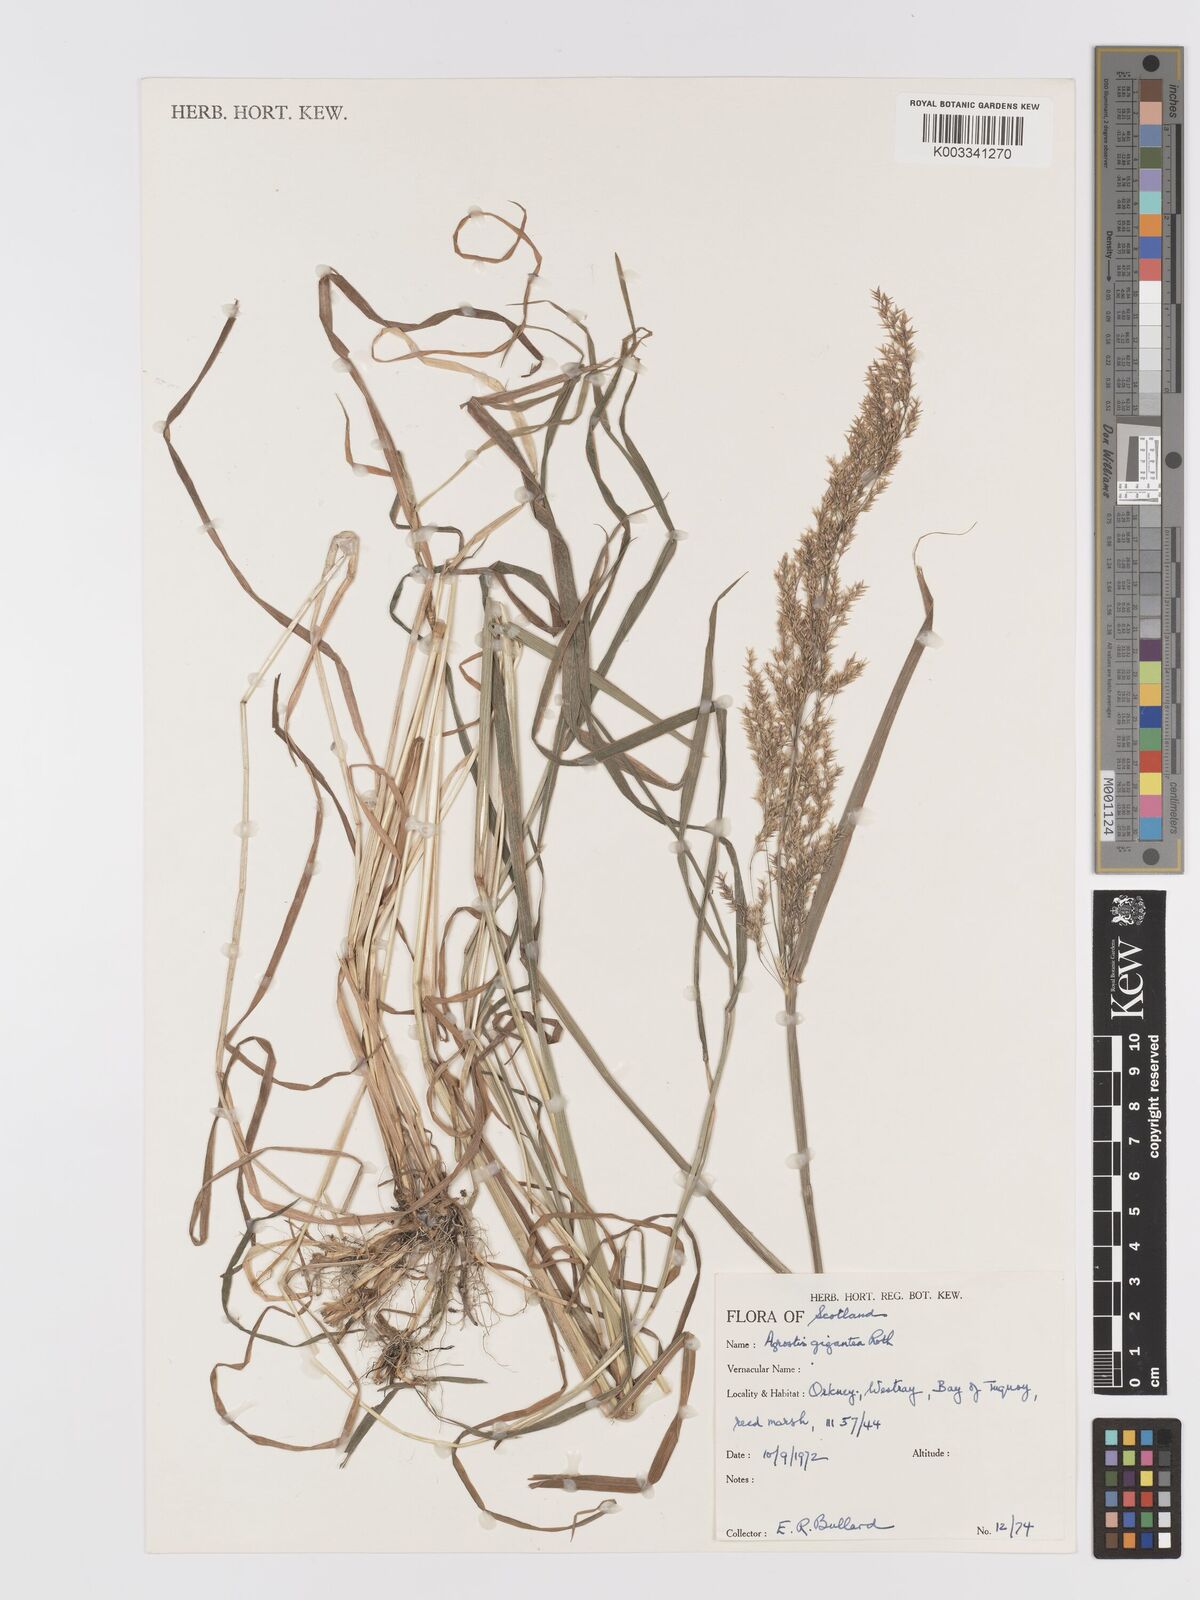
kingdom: Plantae
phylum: Tracheophyta
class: Liliopsida
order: Poales
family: Poaceae
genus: Agrostis
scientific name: Agrostis gigantea
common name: Black bent
